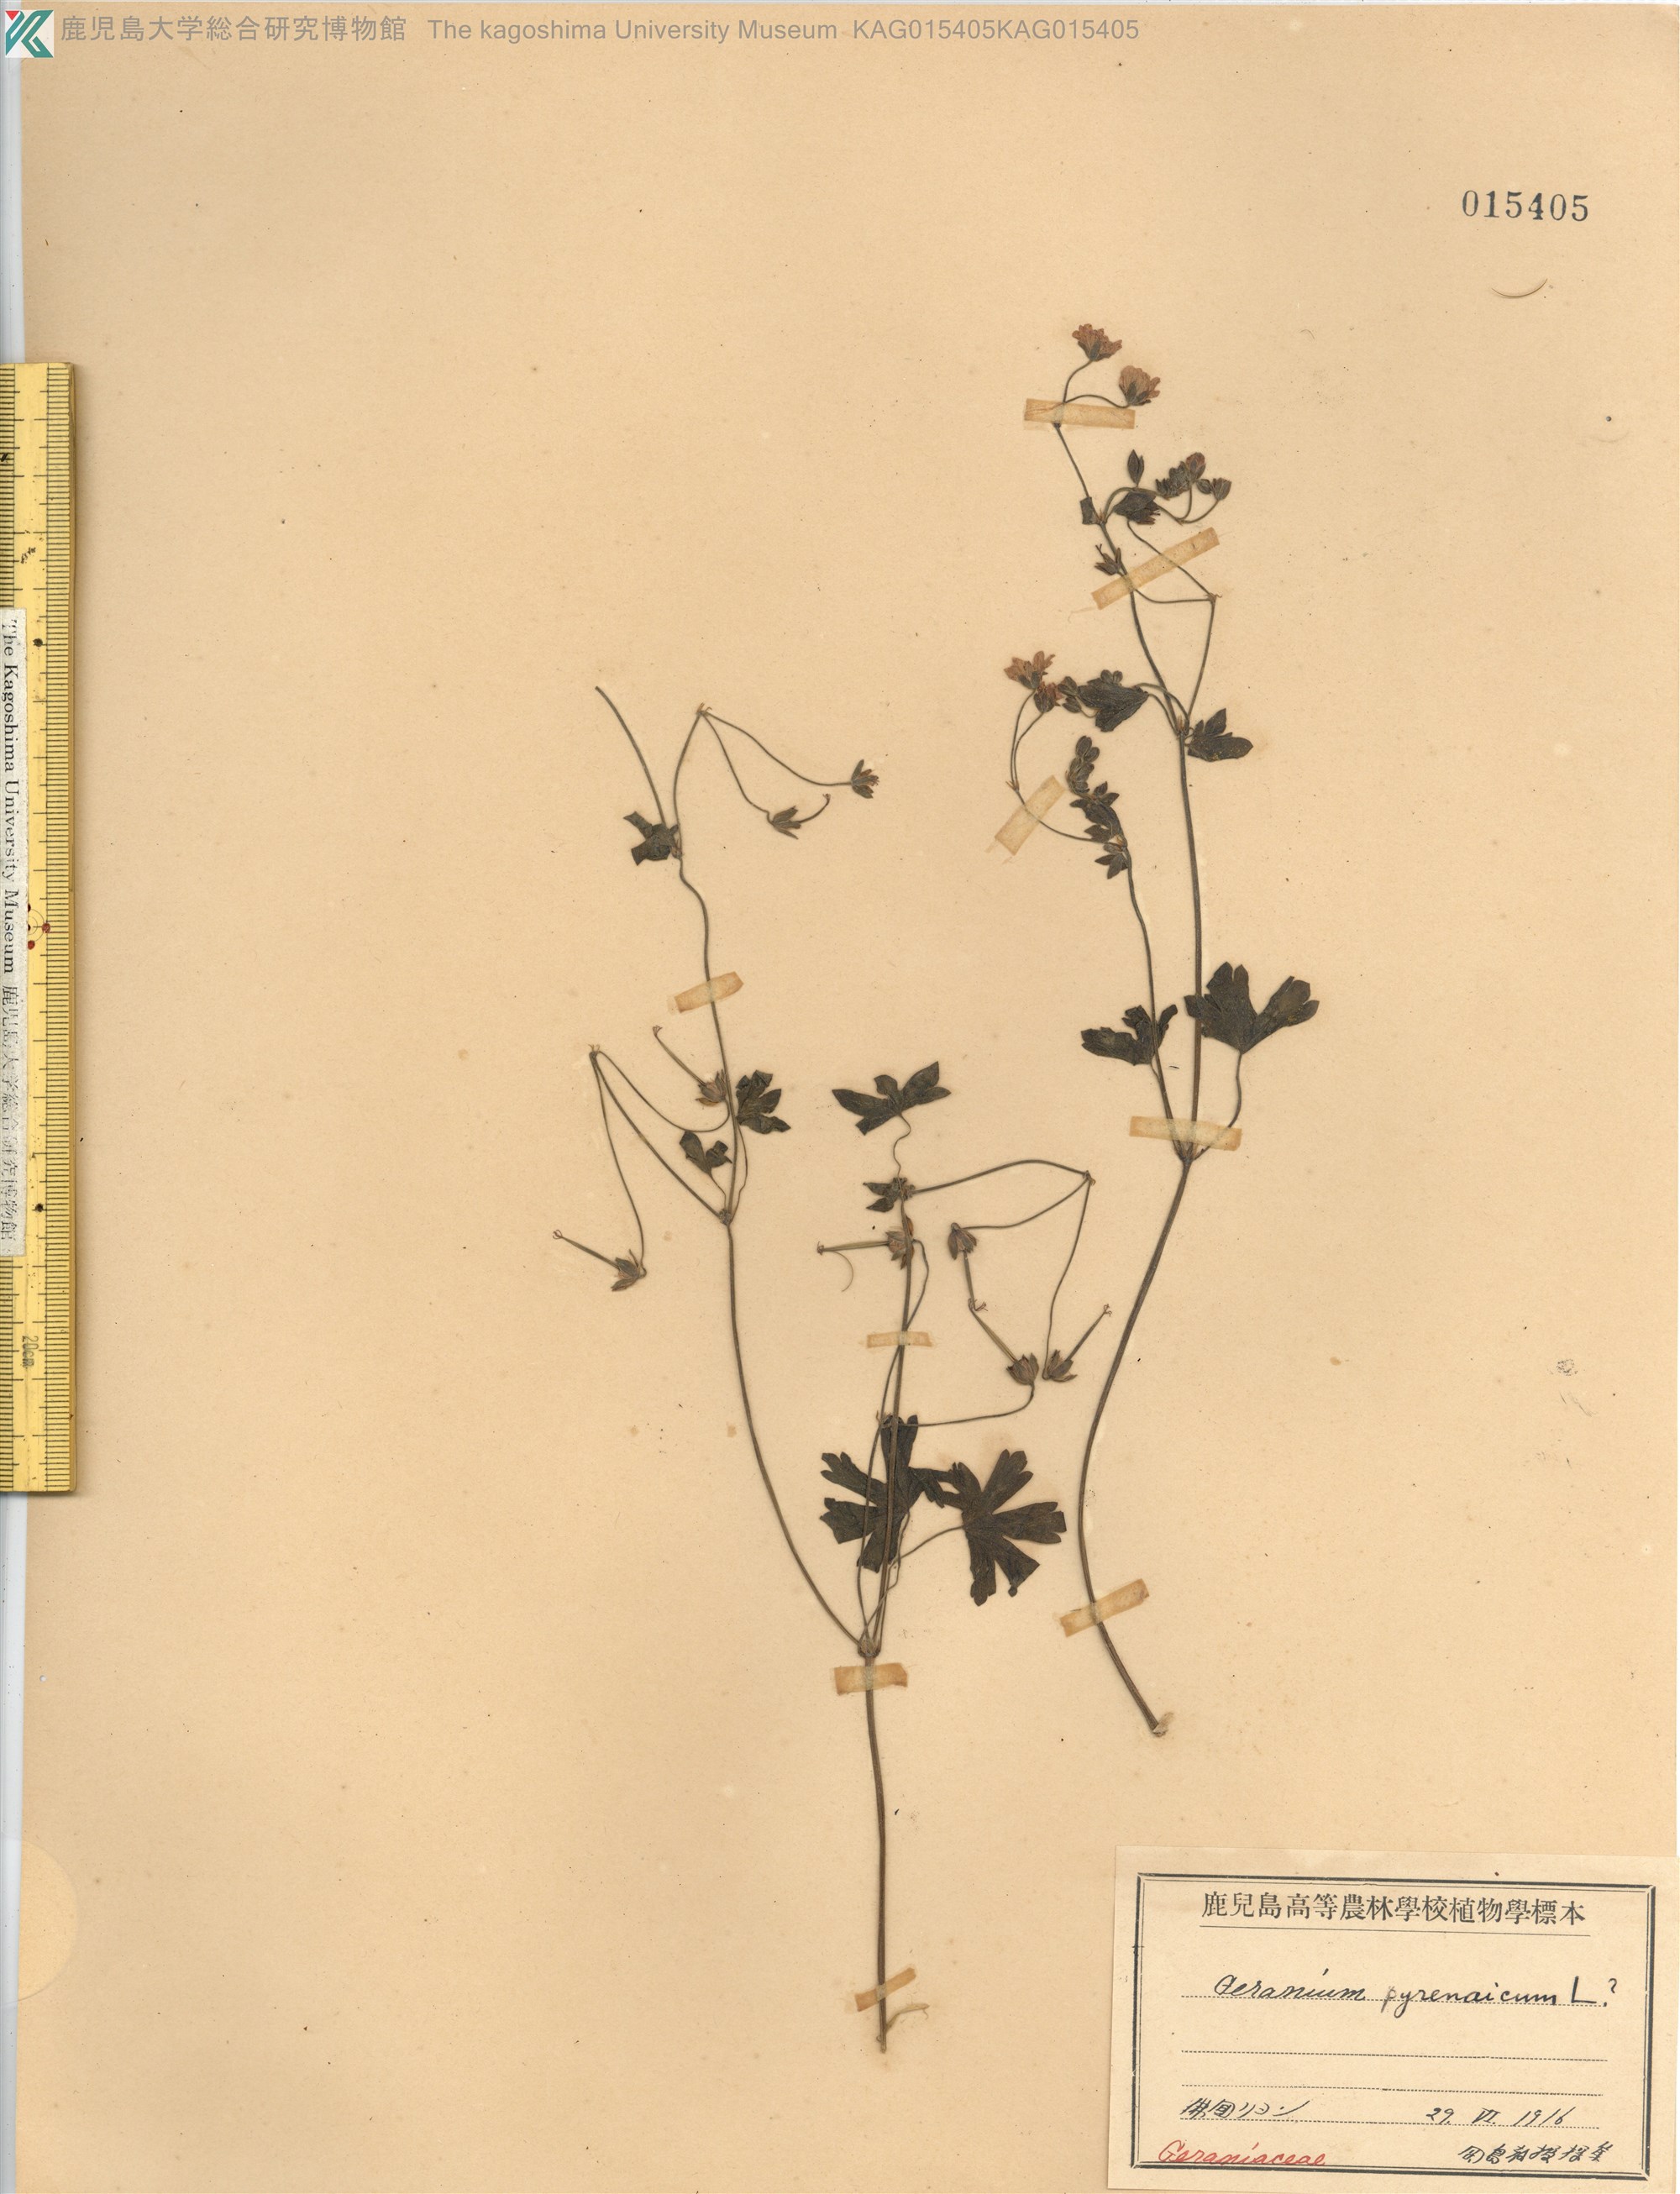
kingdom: Plantae
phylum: Tracheophyta
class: Magnoliopsida
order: Geraniales
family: Geraniaceae
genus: Geranium
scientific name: Geranium pyrenaicum
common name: Hedgerow crane's-bill
